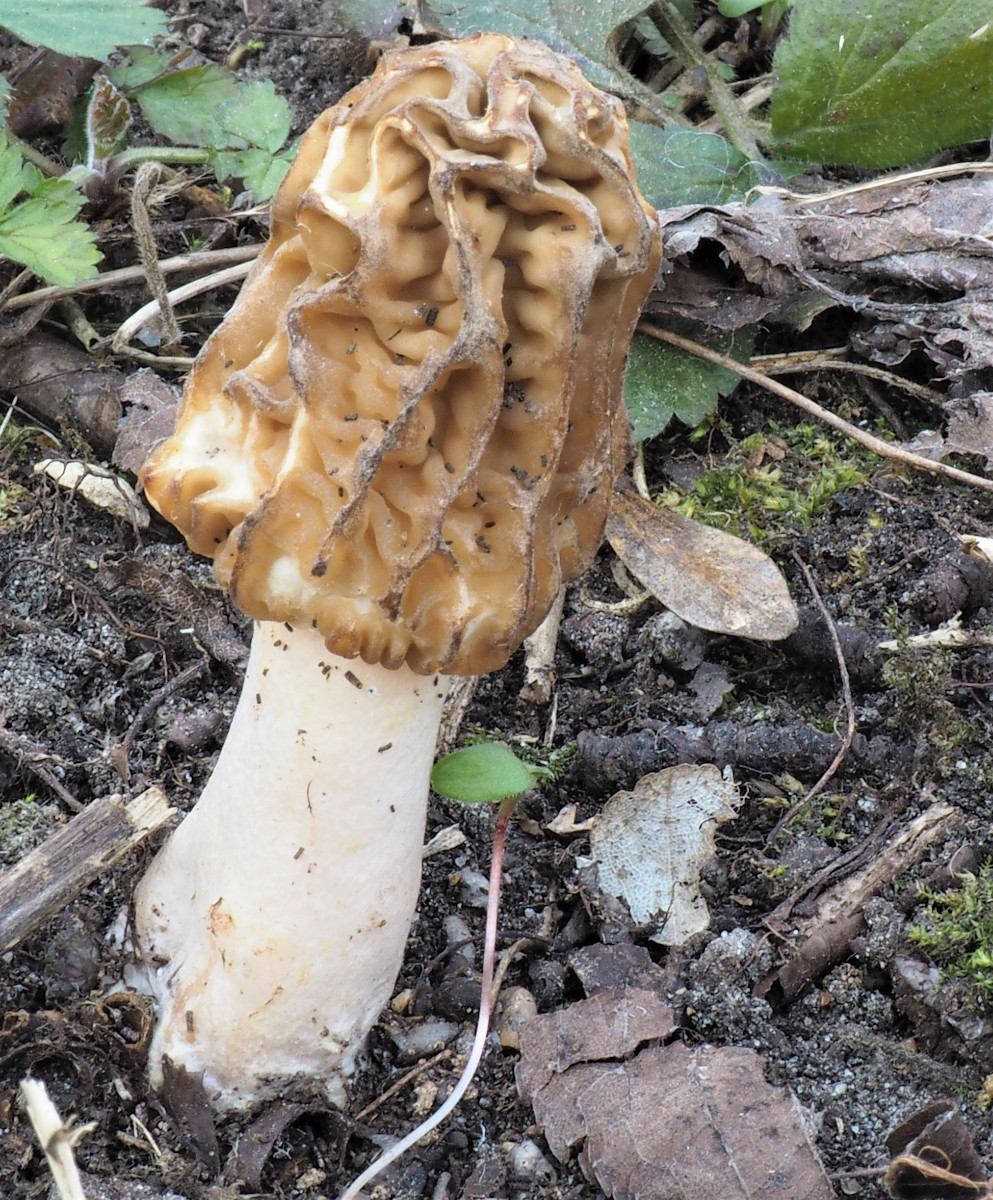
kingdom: Fungi
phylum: Ascomycota
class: Pezizomycetes
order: Pezizales
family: Morchellaceae
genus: Verpa
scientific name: Verpa bohemica
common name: rynket klokkemorkel
